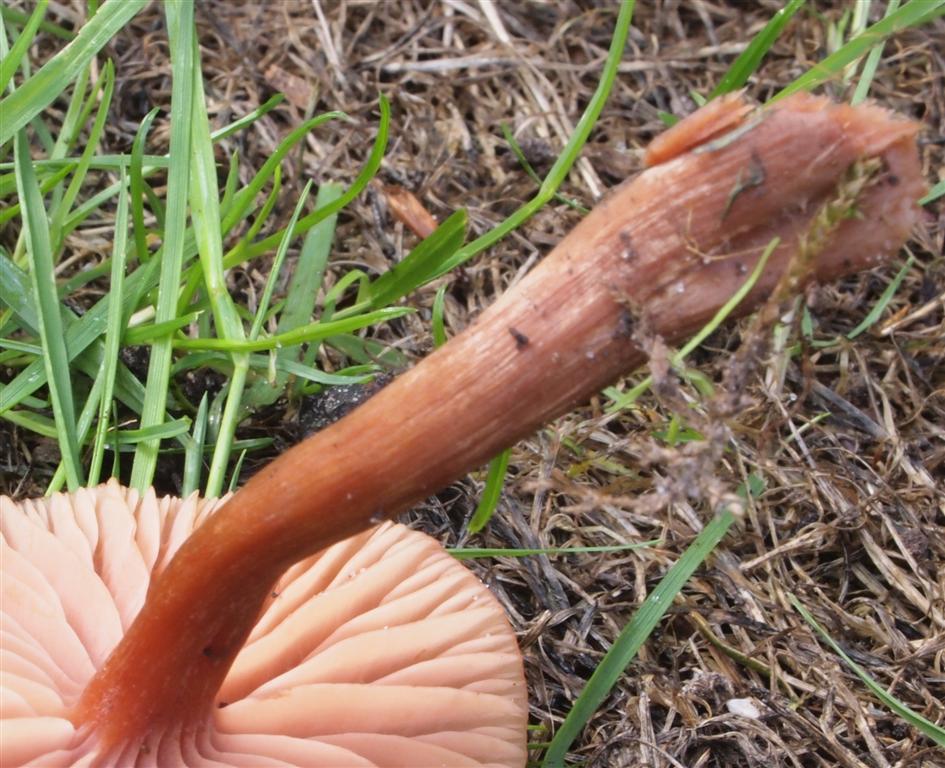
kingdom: Fungi
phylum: Basidiomycota
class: Agaricomycetes
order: Agaricales
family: Hydnangiaceae
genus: Laccaria
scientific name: Laccaria proxima
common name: stor ametysthat
